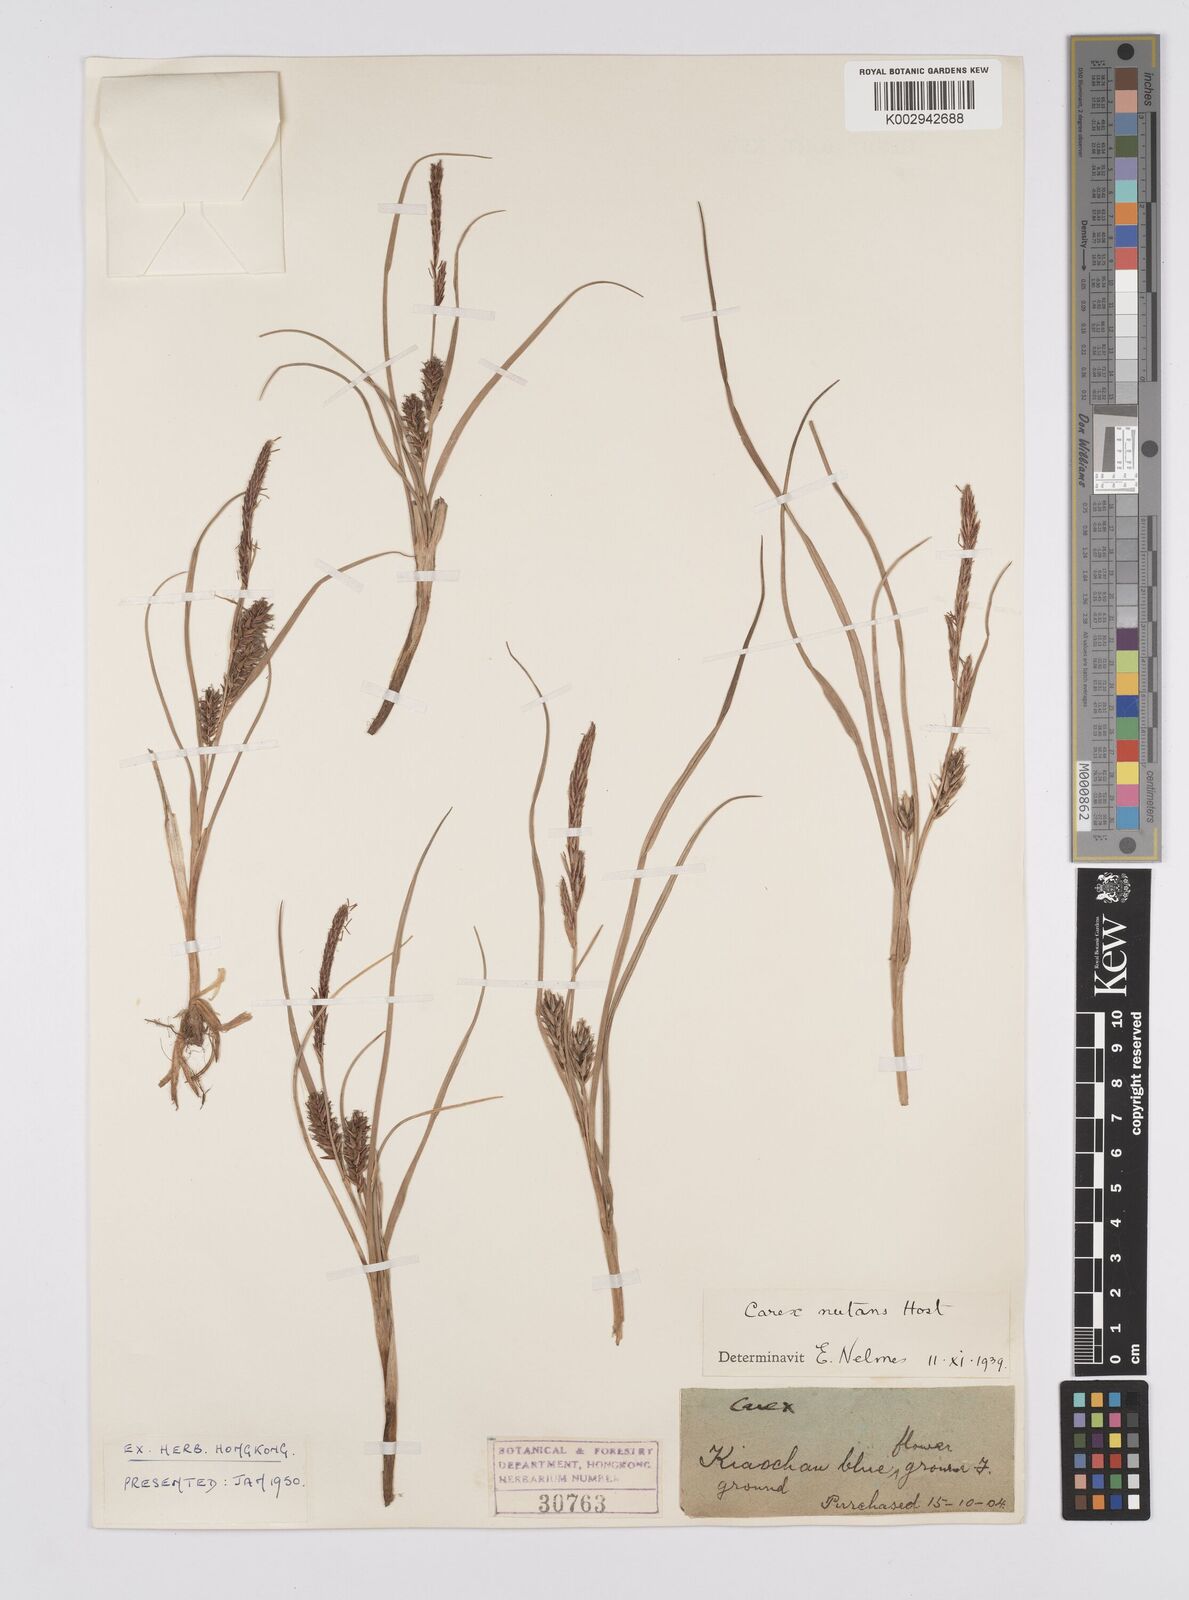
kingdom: Plantae
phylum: Tracheophyta
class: Liliopsida
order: Poales
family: Cyperaceae
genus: Carex
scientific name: Carex melanostachya
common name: Black-spiked sedge
